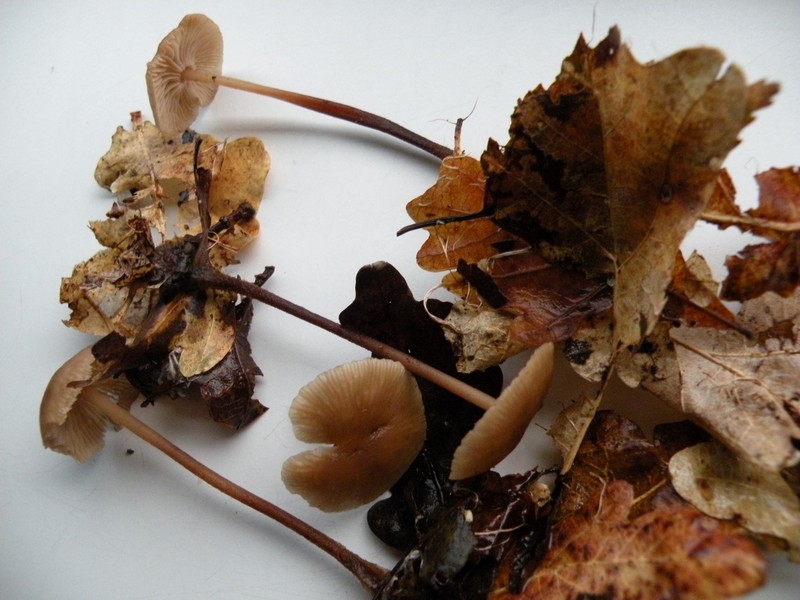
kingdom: Fungi
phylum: Basidiomycota
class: Agaricomycetes
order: Agaricales
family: Omphalotaceae
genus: Mycetinis
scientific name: Mycetinis querceus
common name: ege-løghat
